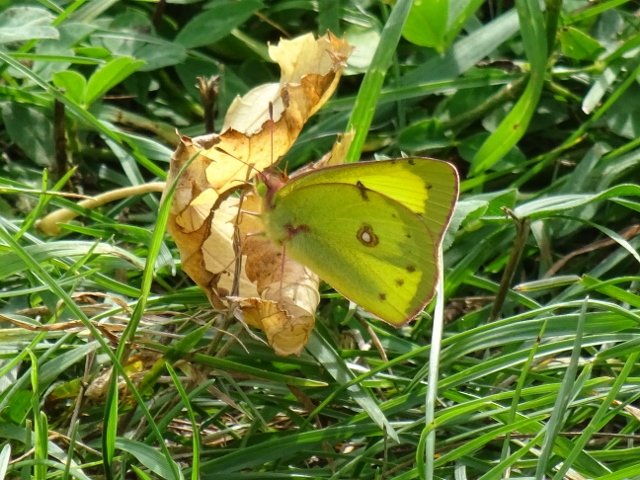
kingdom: Animalia
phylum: Arthropoda
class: Insecta
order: Lepidoptera
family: Pieridae
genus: Colias
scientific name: Colias philodice
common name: Clouded Sulphur
